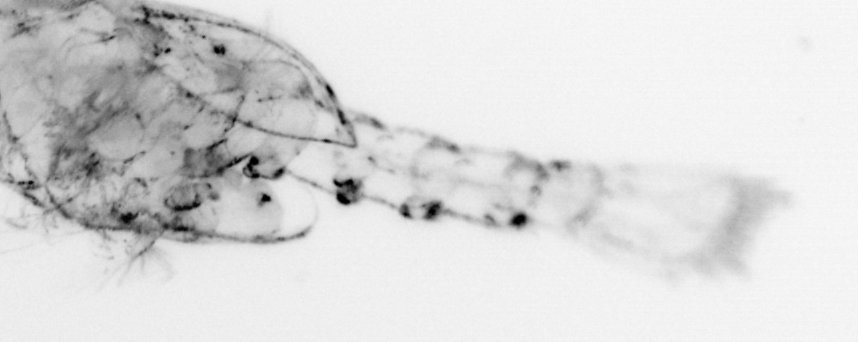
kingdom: Animalia
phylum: Arthropoda
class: Malacostraca
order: Decapoda
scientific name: Decapoda
